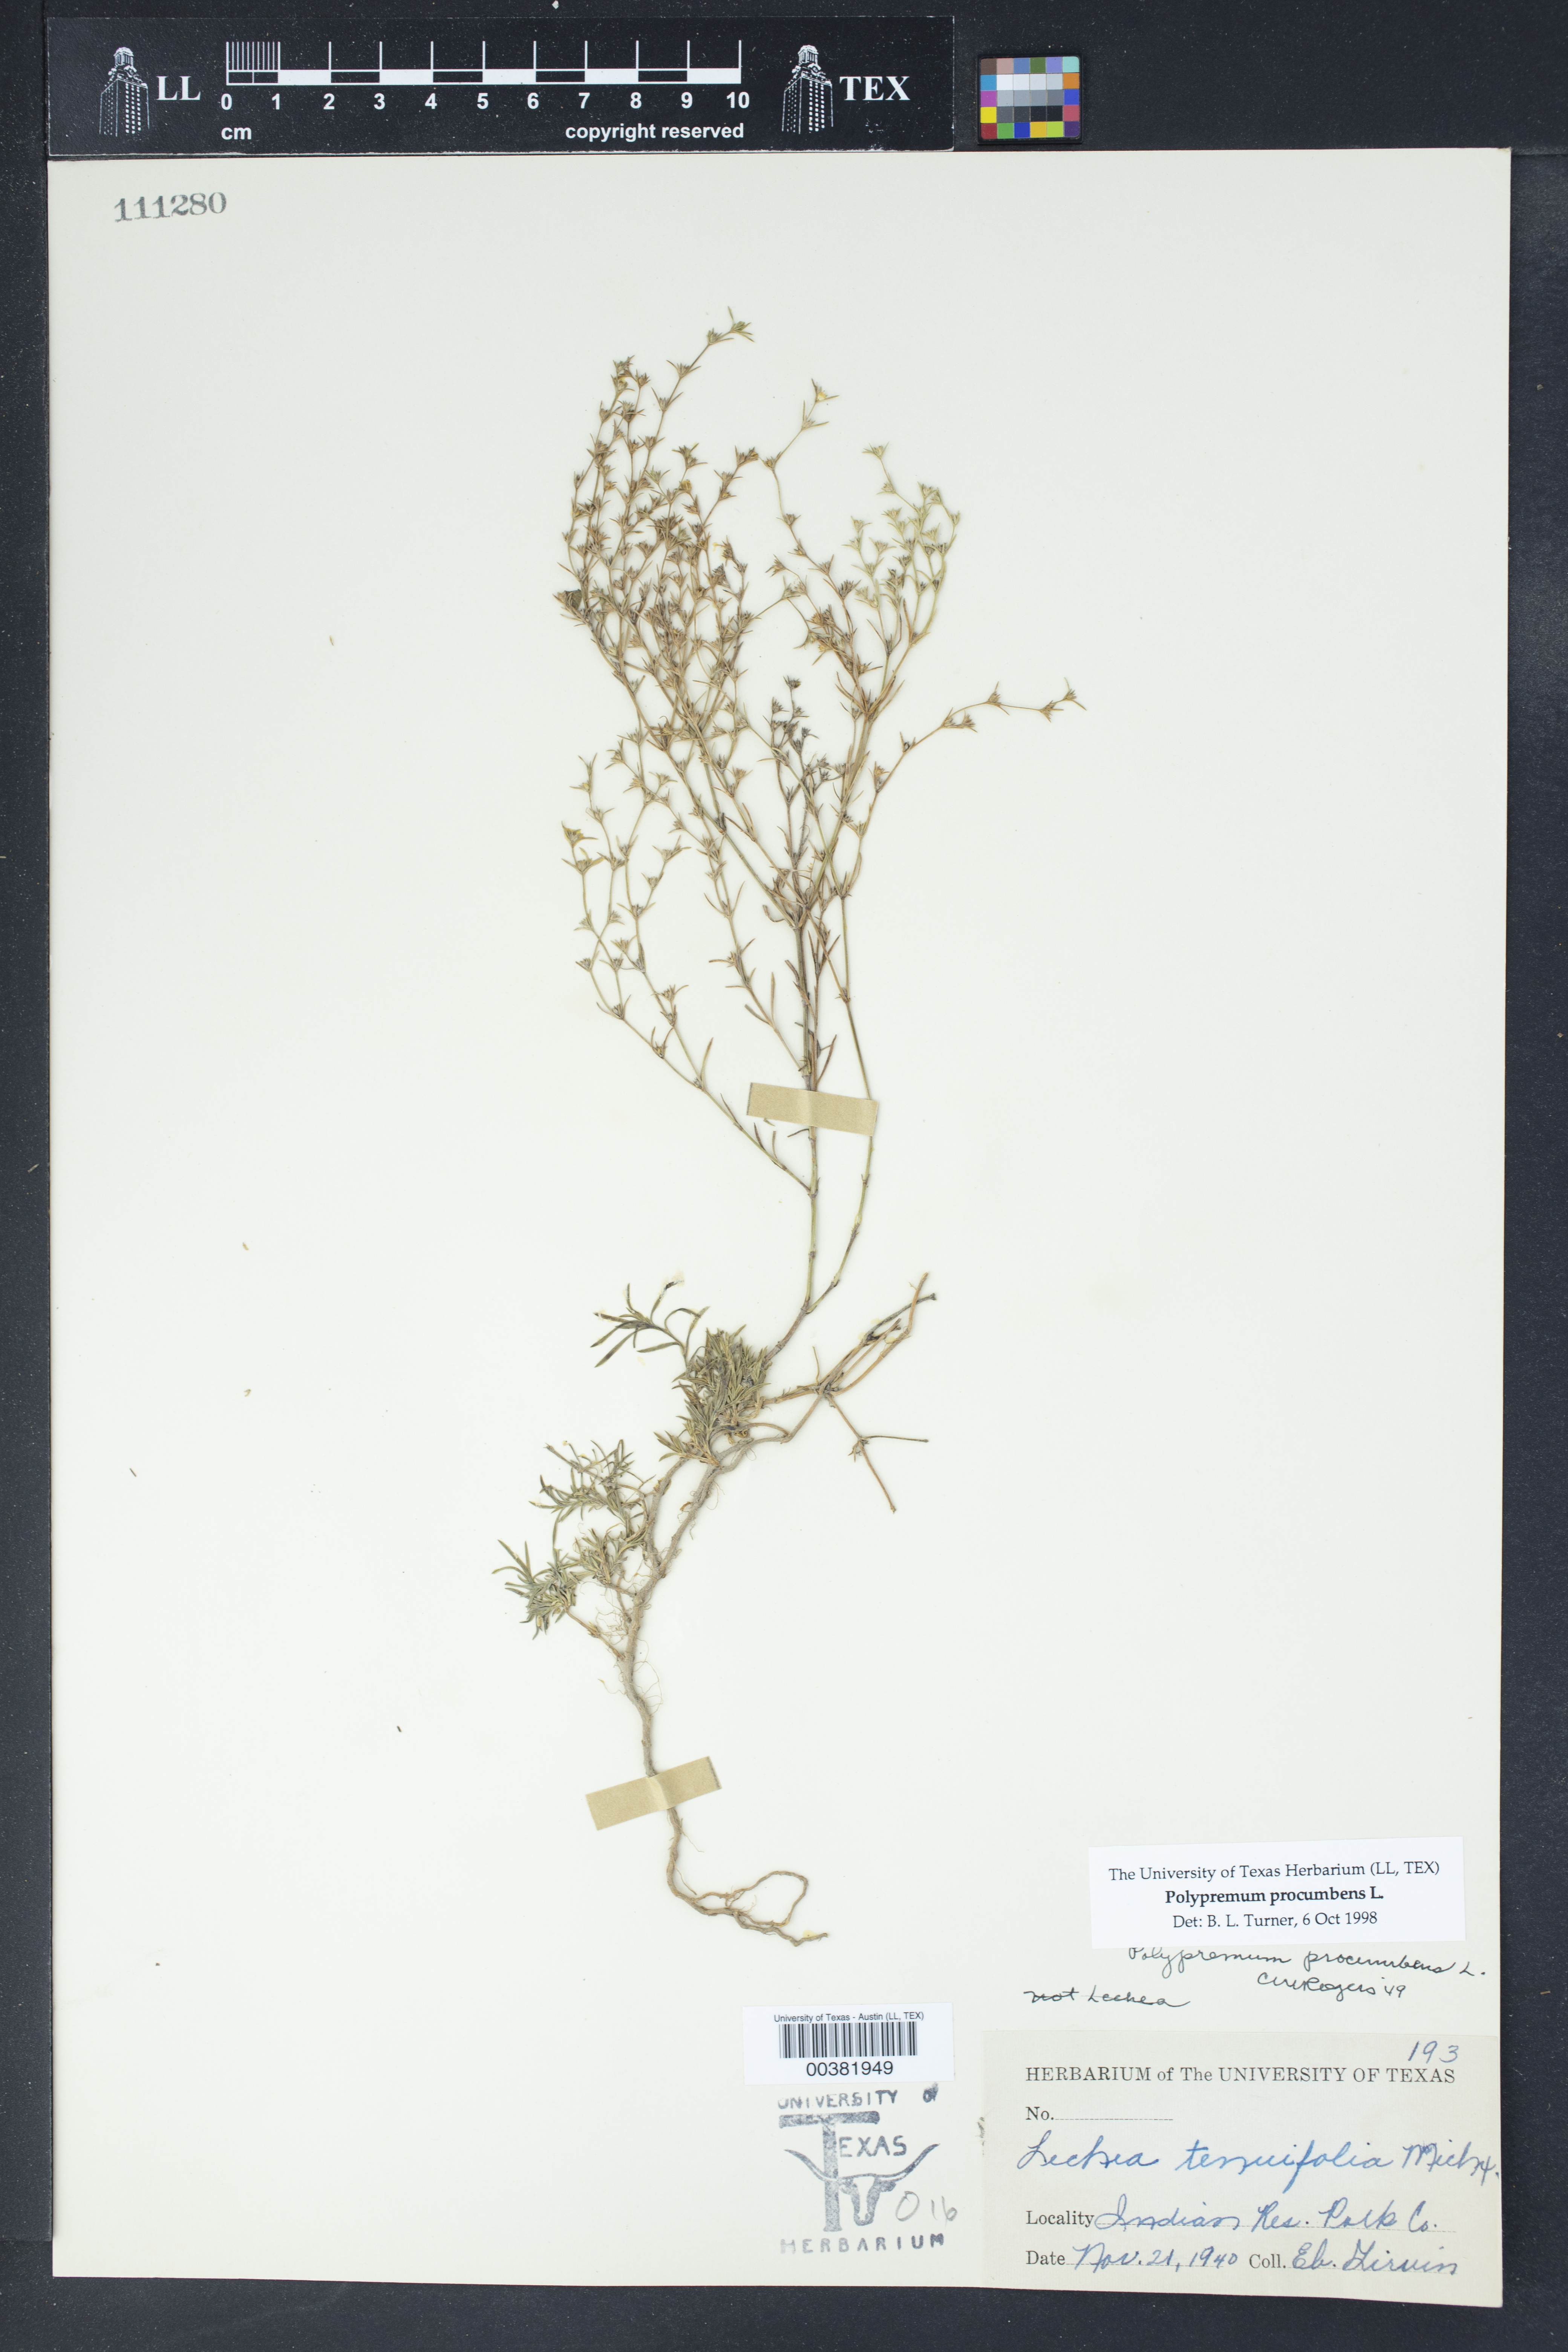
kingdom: Plantae
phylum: Tracheophyta
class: Magnoliopsida
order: Lamiales
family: Tetrachondraceae
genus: Polypremum
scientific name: Polypremum procumbens
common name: Juniper-leaf
